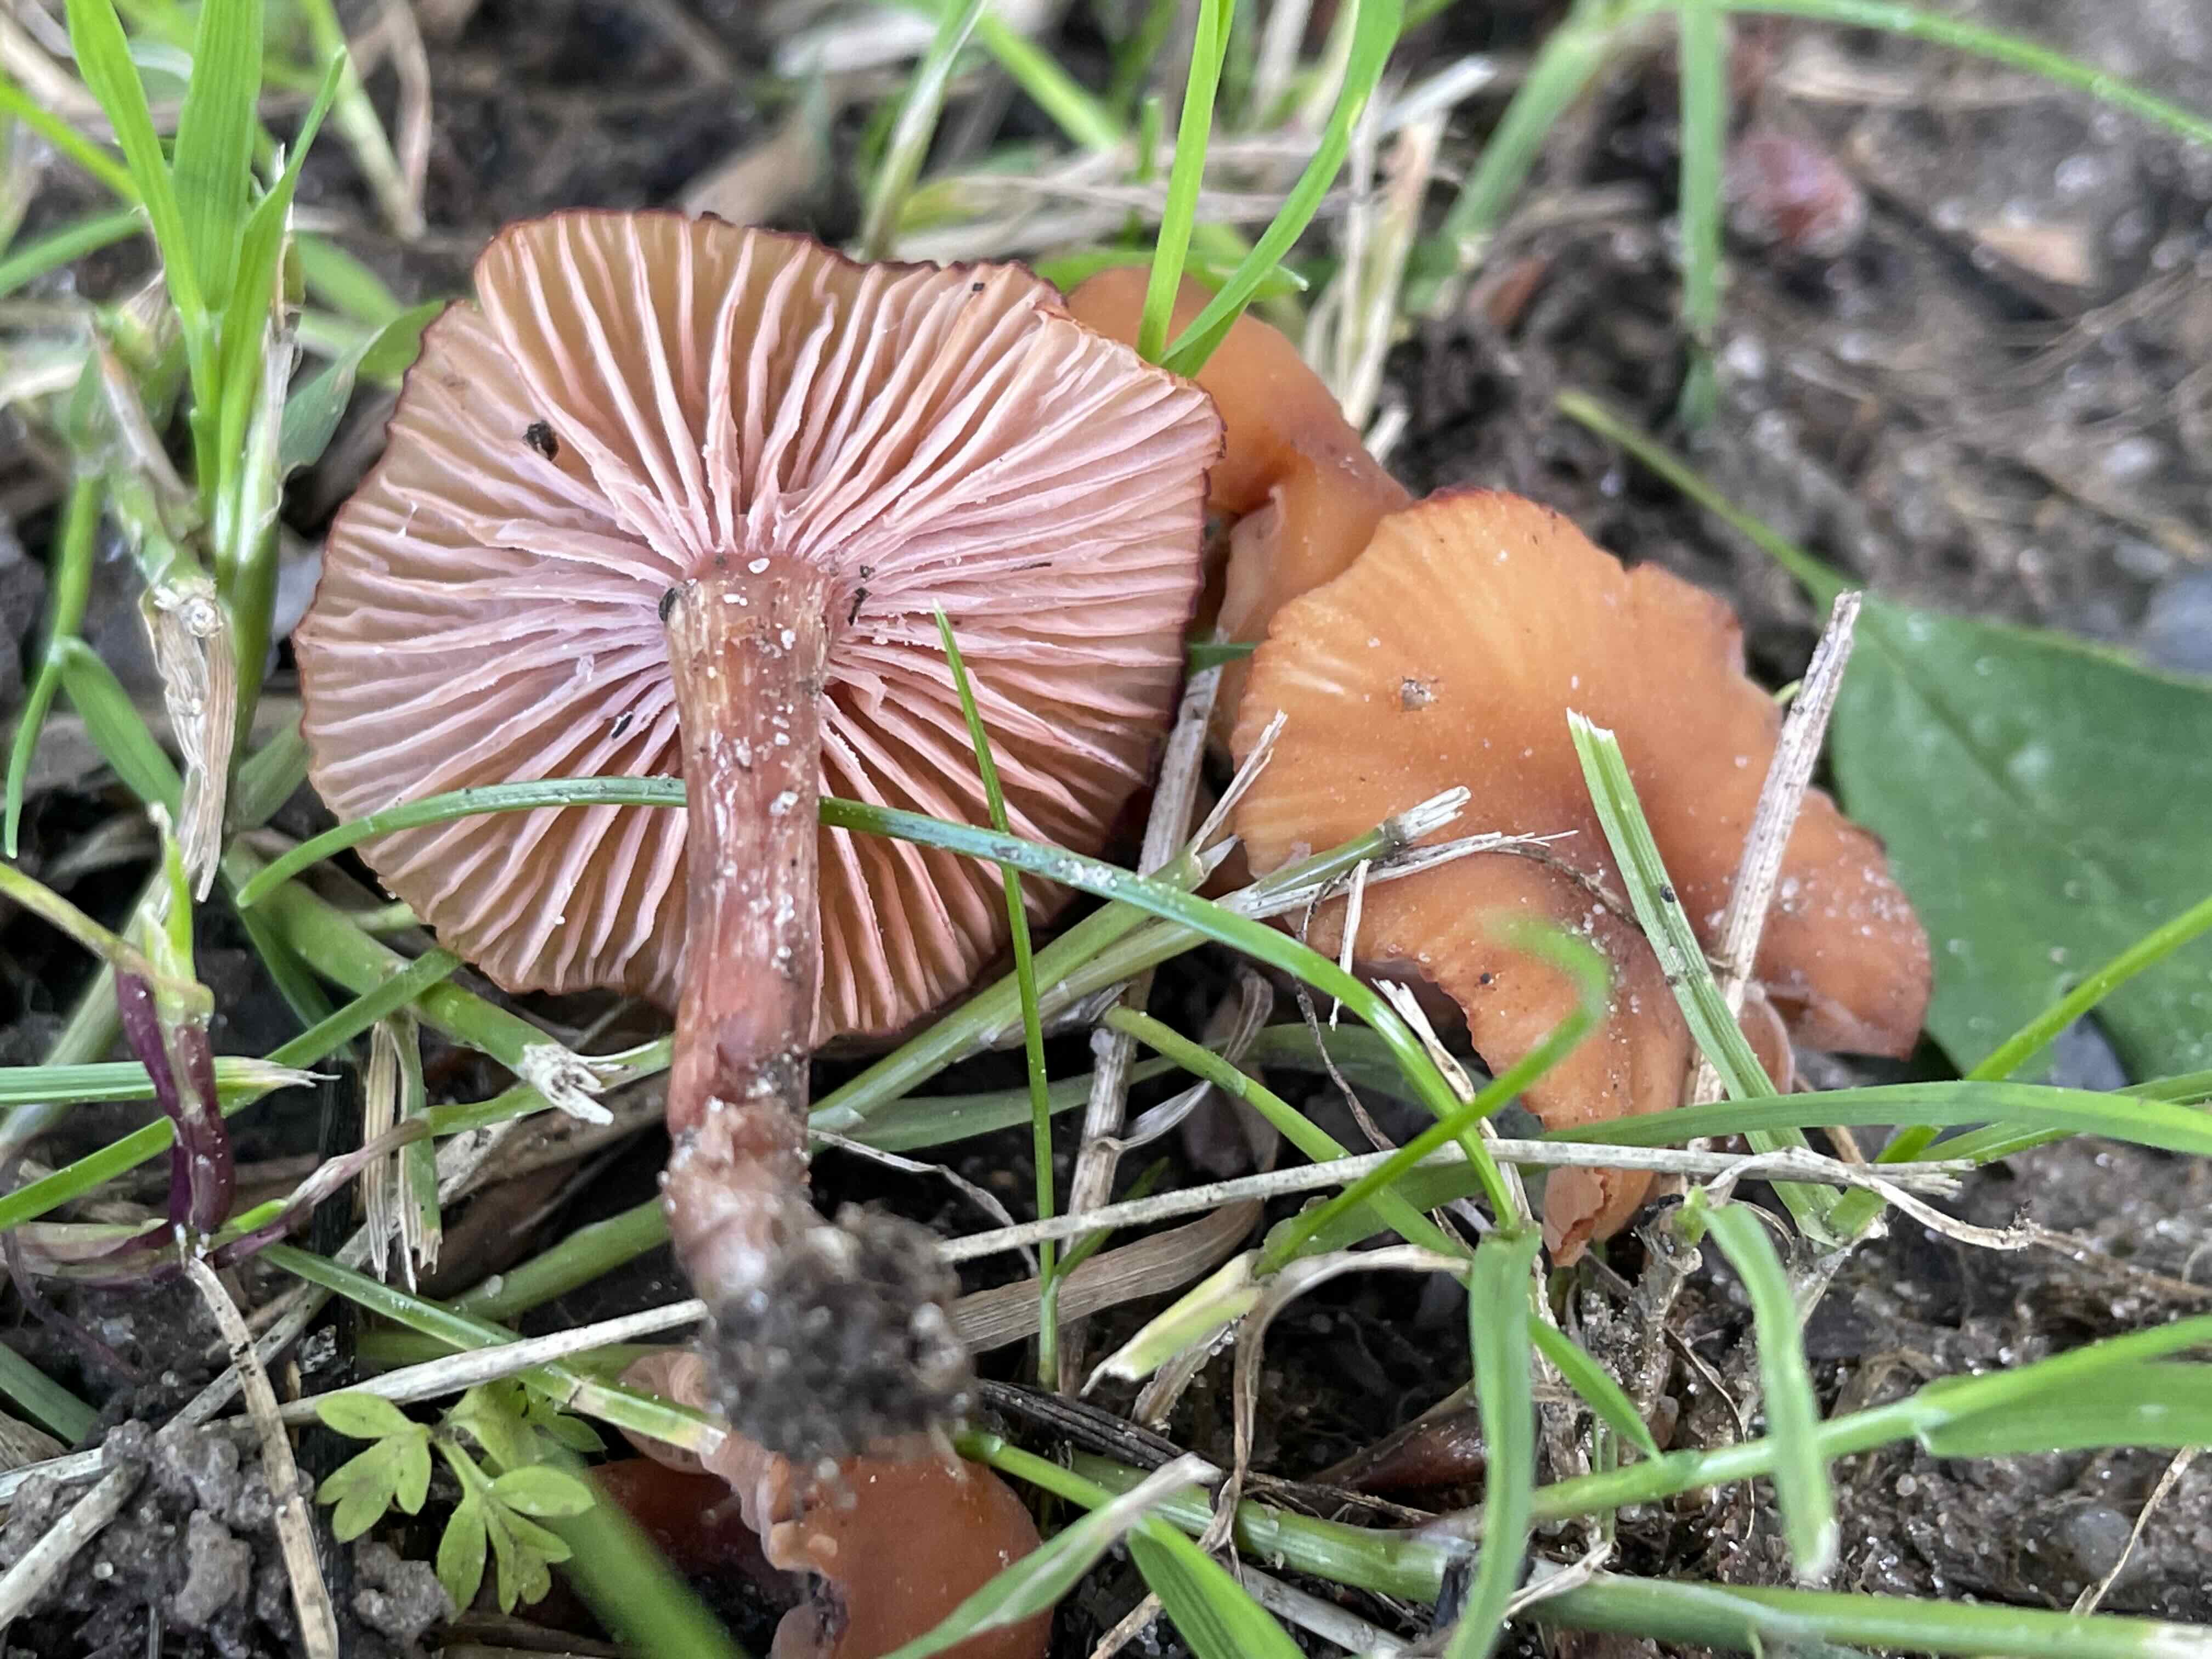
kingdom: Fungi
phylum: Basidiomycota
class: Agaricomycetes
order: Agaricales
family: Hydnangiaceae
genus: Laccaria
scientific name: Laccaria laccata
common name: rød ametysthat
